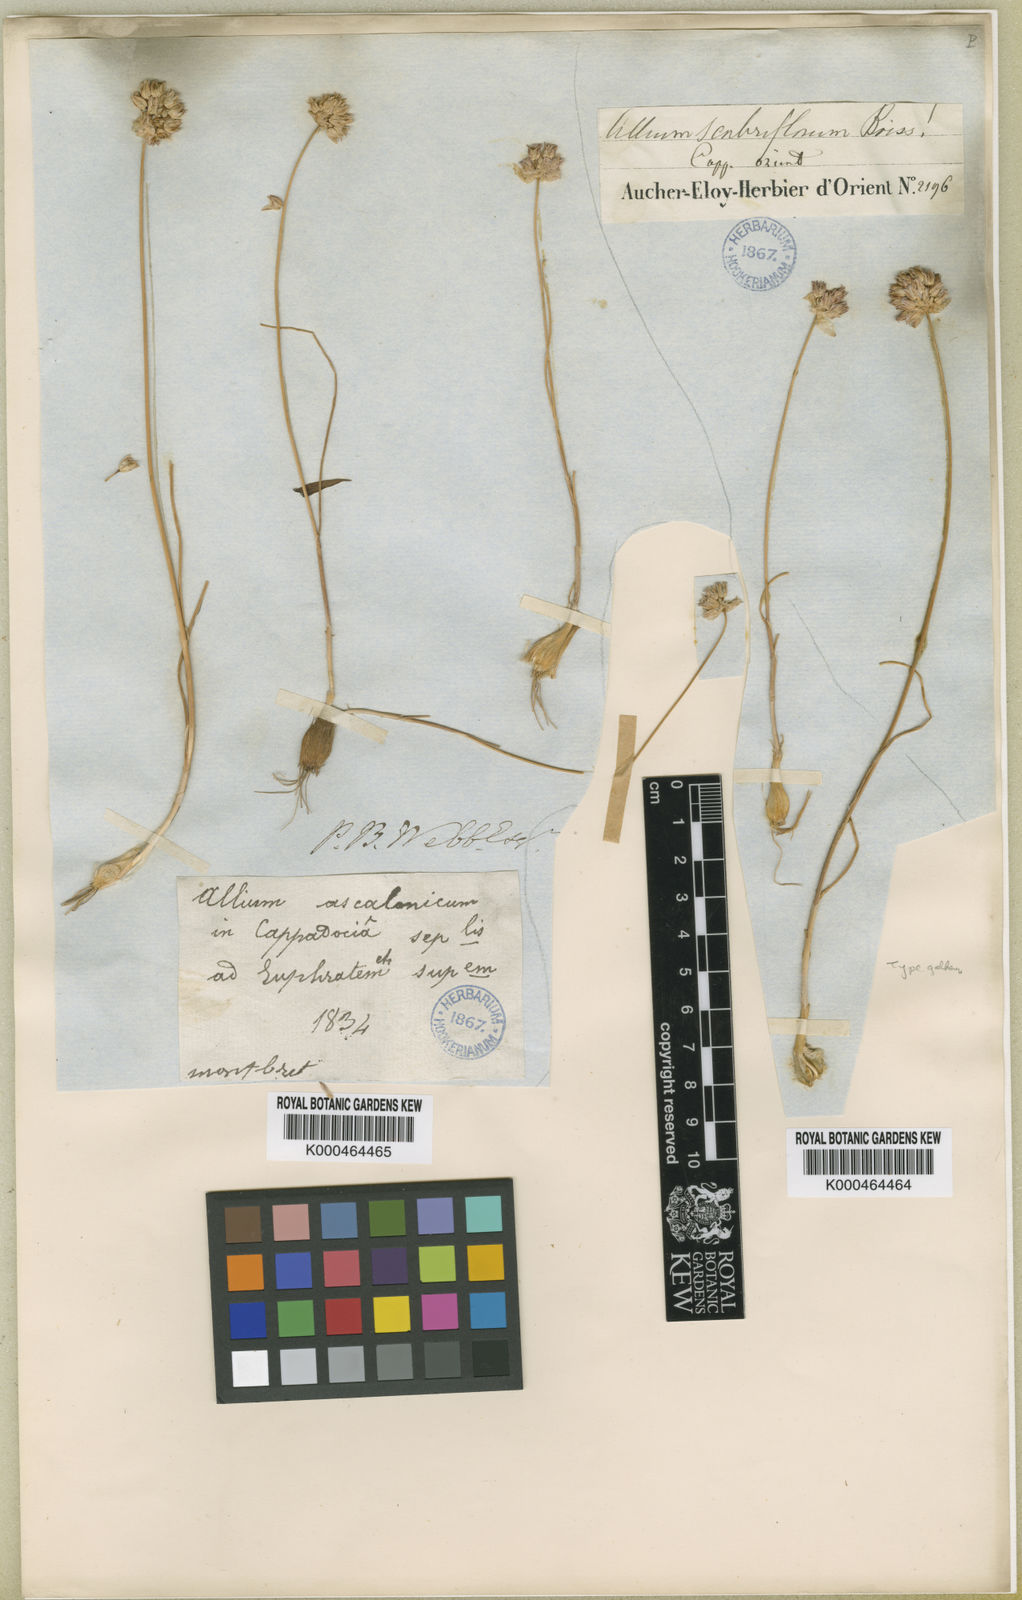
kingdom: Plantae
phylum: Tracheophyta
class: Liliopsida
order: Asparagales
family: Amaryllidaceae
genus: Allium
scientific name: Allium scabriflorum
